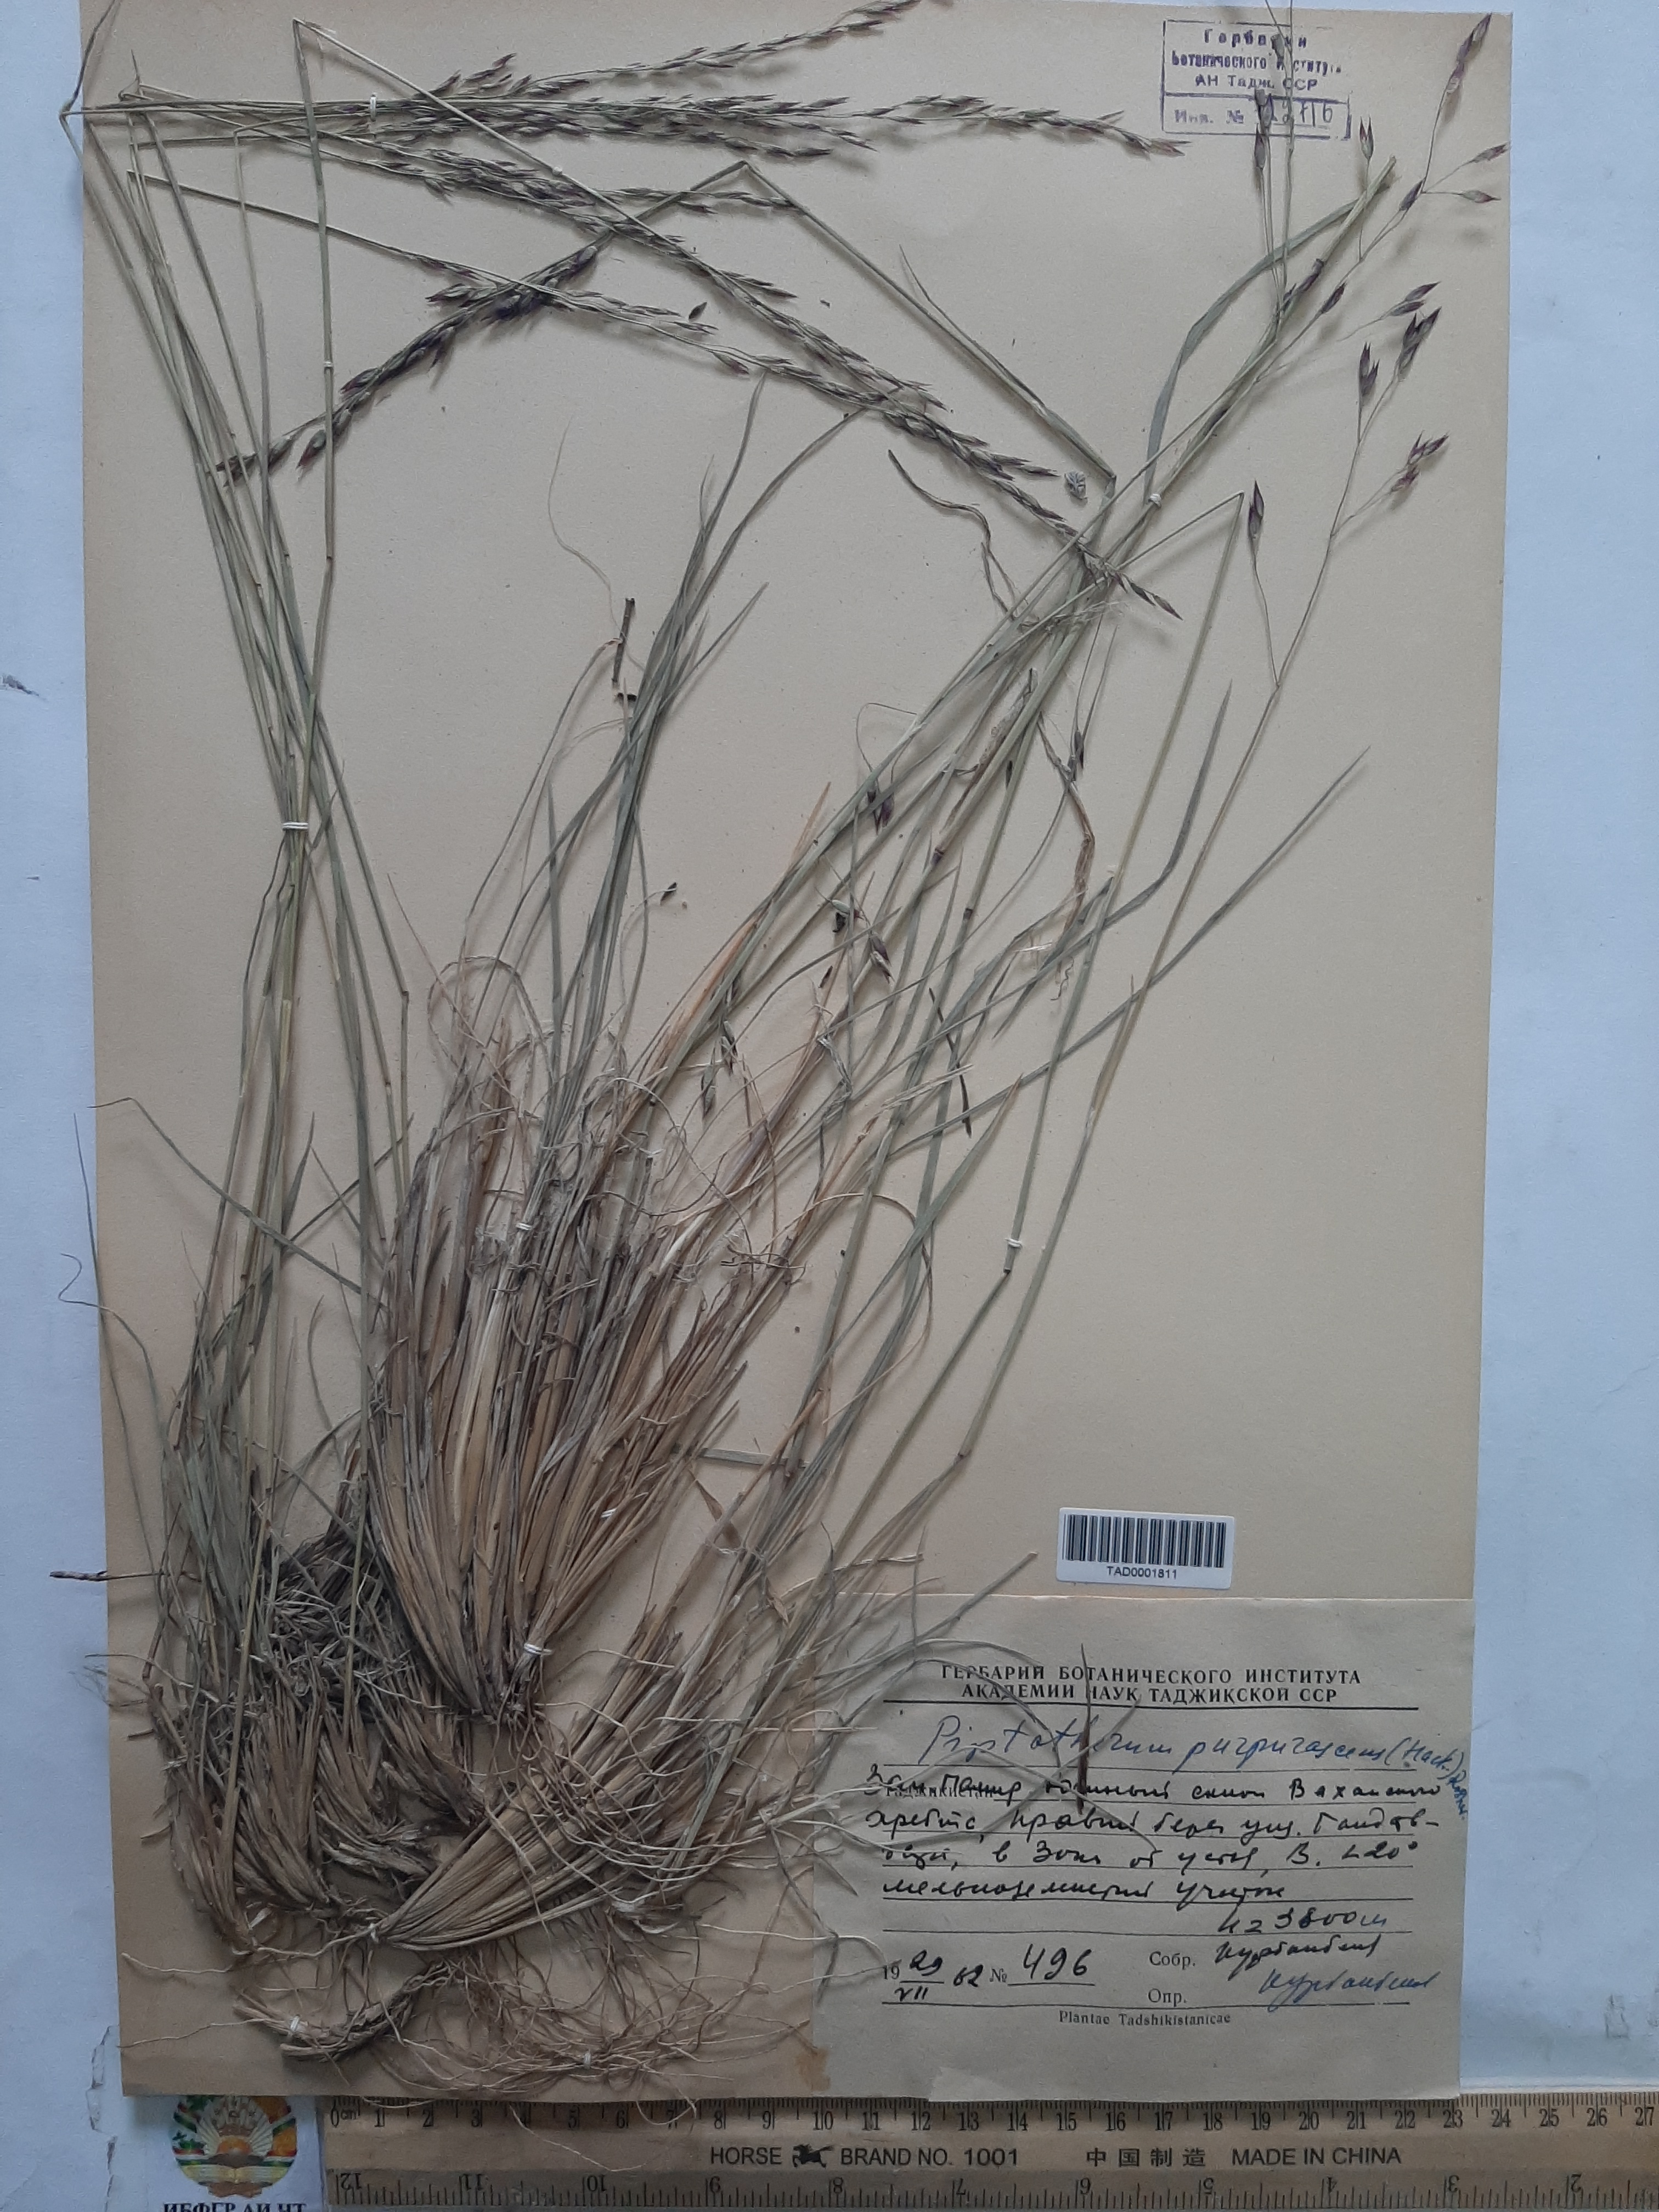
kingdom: Plantae
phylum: Tracheophyta
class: Liliopsida
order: Poales
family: Poaceae
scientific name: Poaceae
